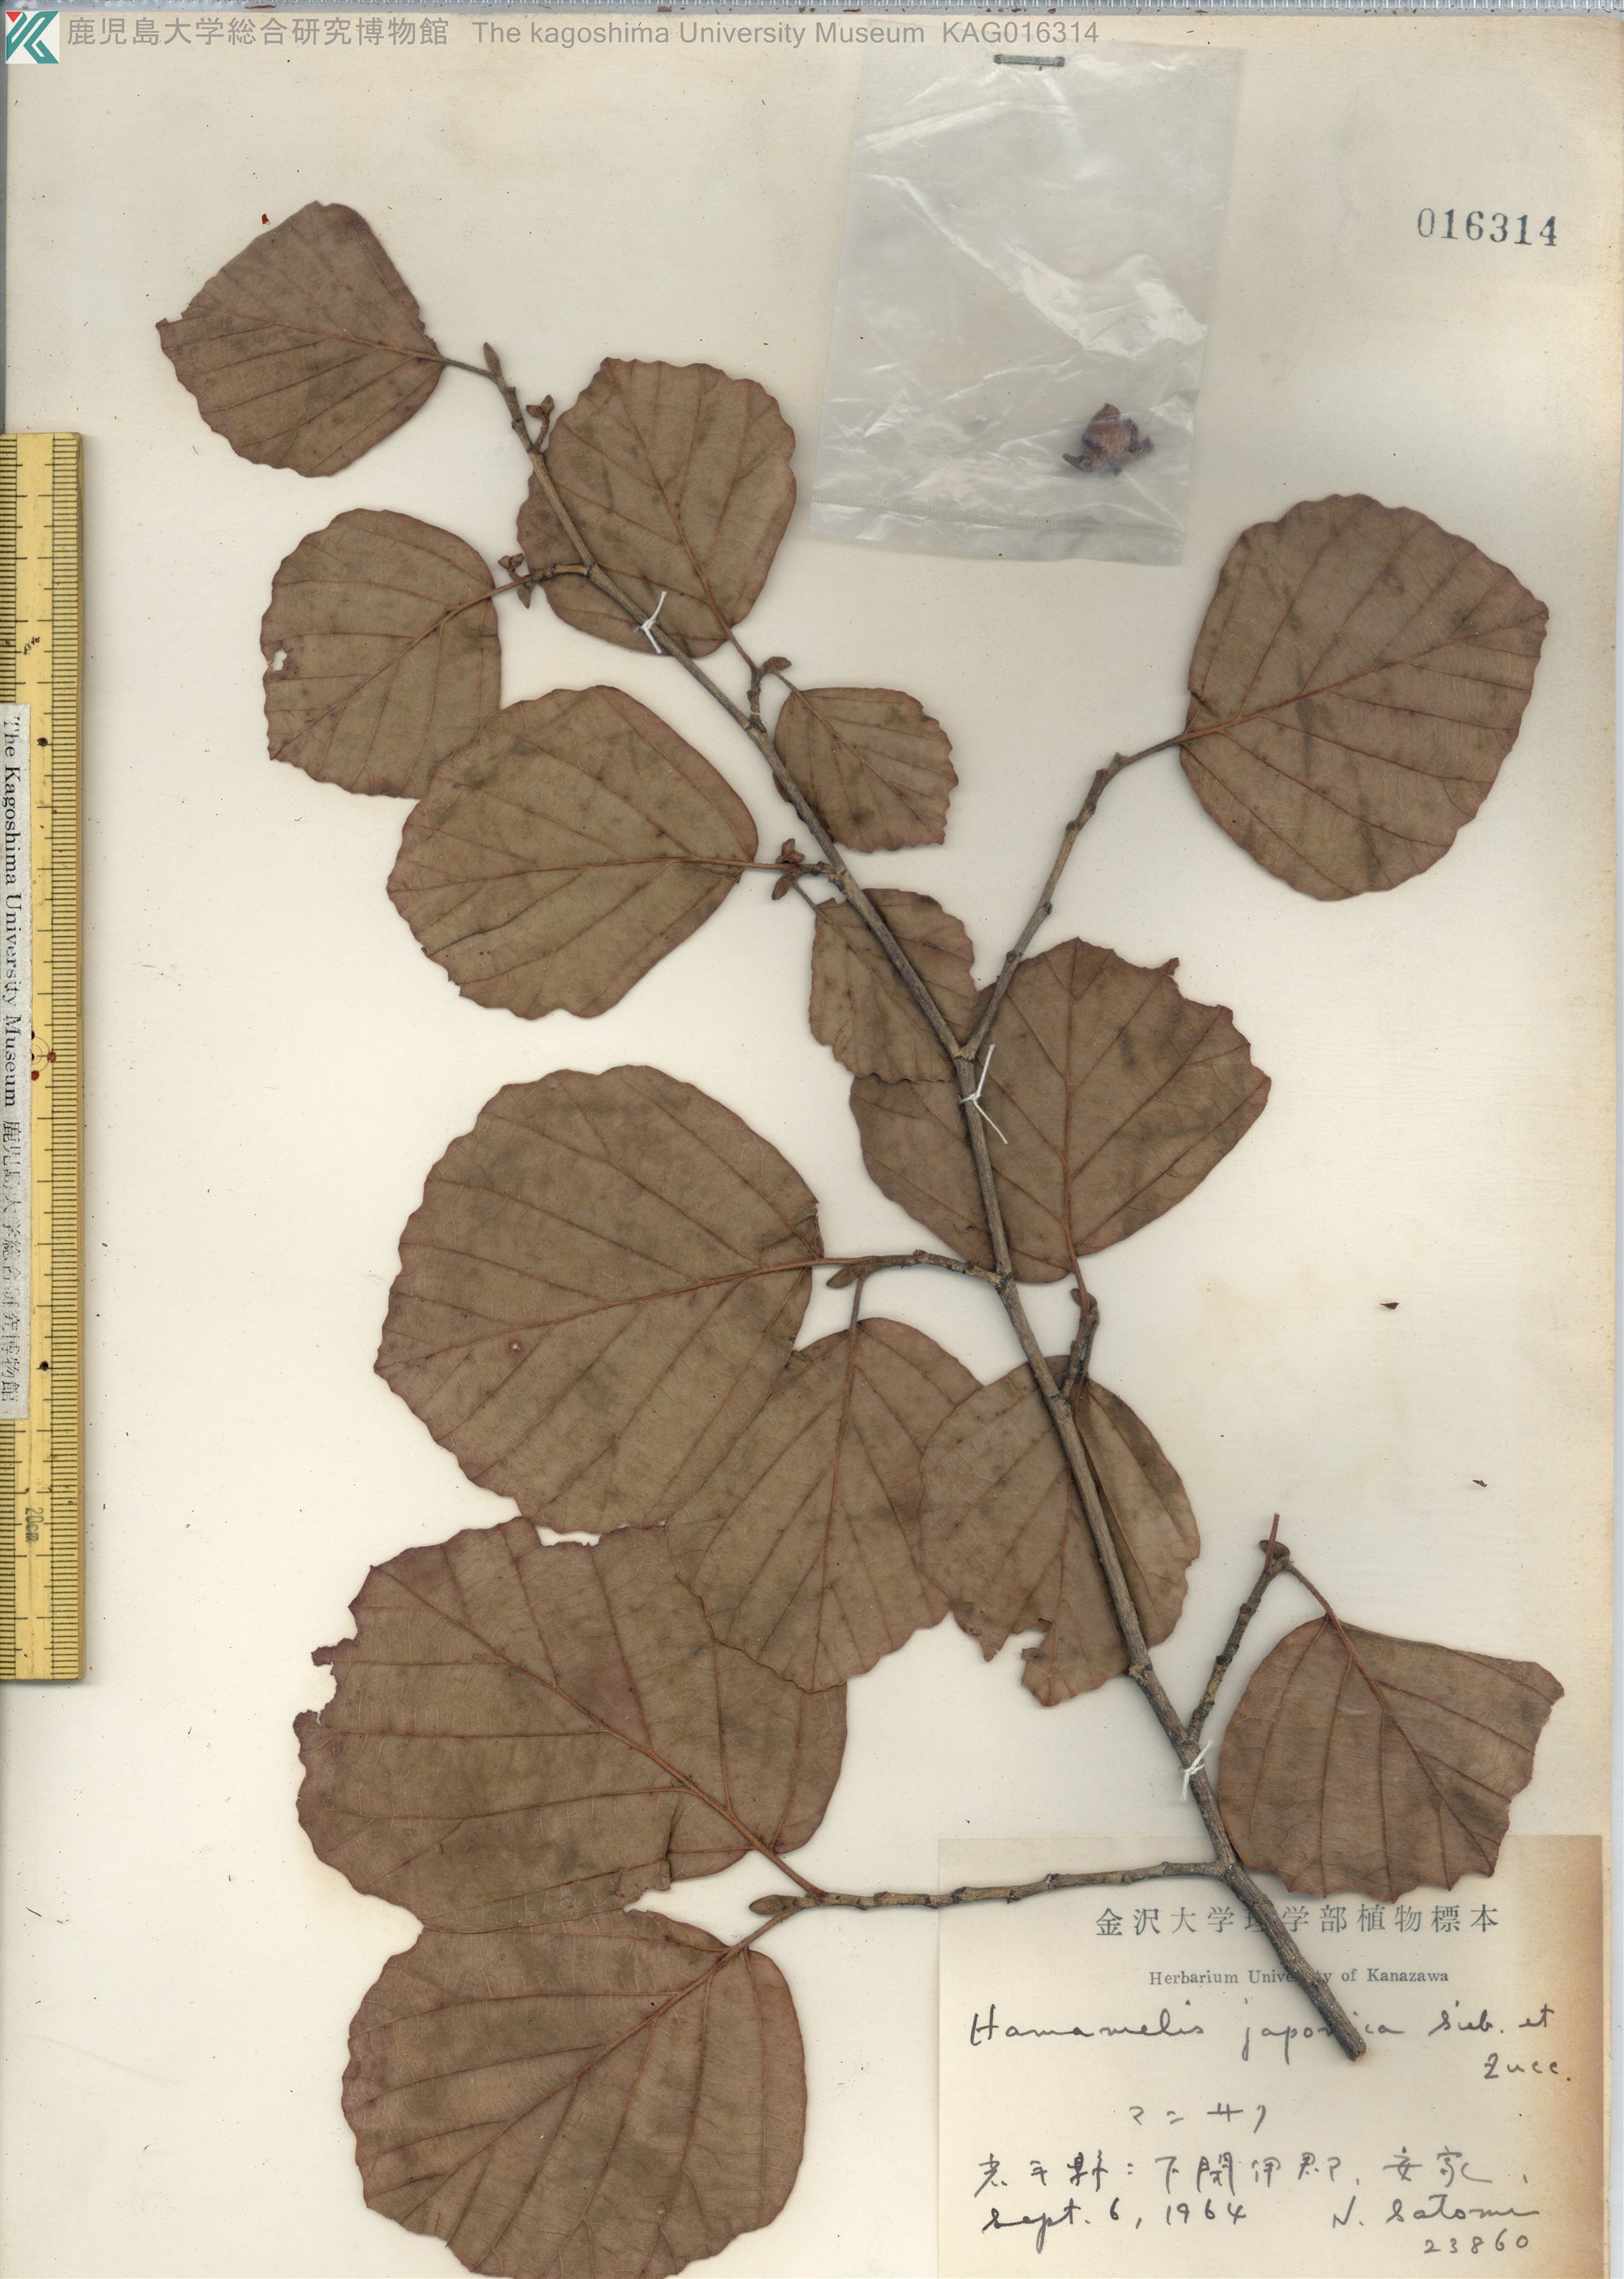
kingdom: Plantae
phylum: Tracheophyta
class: Magnoliopsida
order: Saxifragales
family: Hamamelidaceae
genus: Hamamelis
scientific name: Hamamelis japonica
